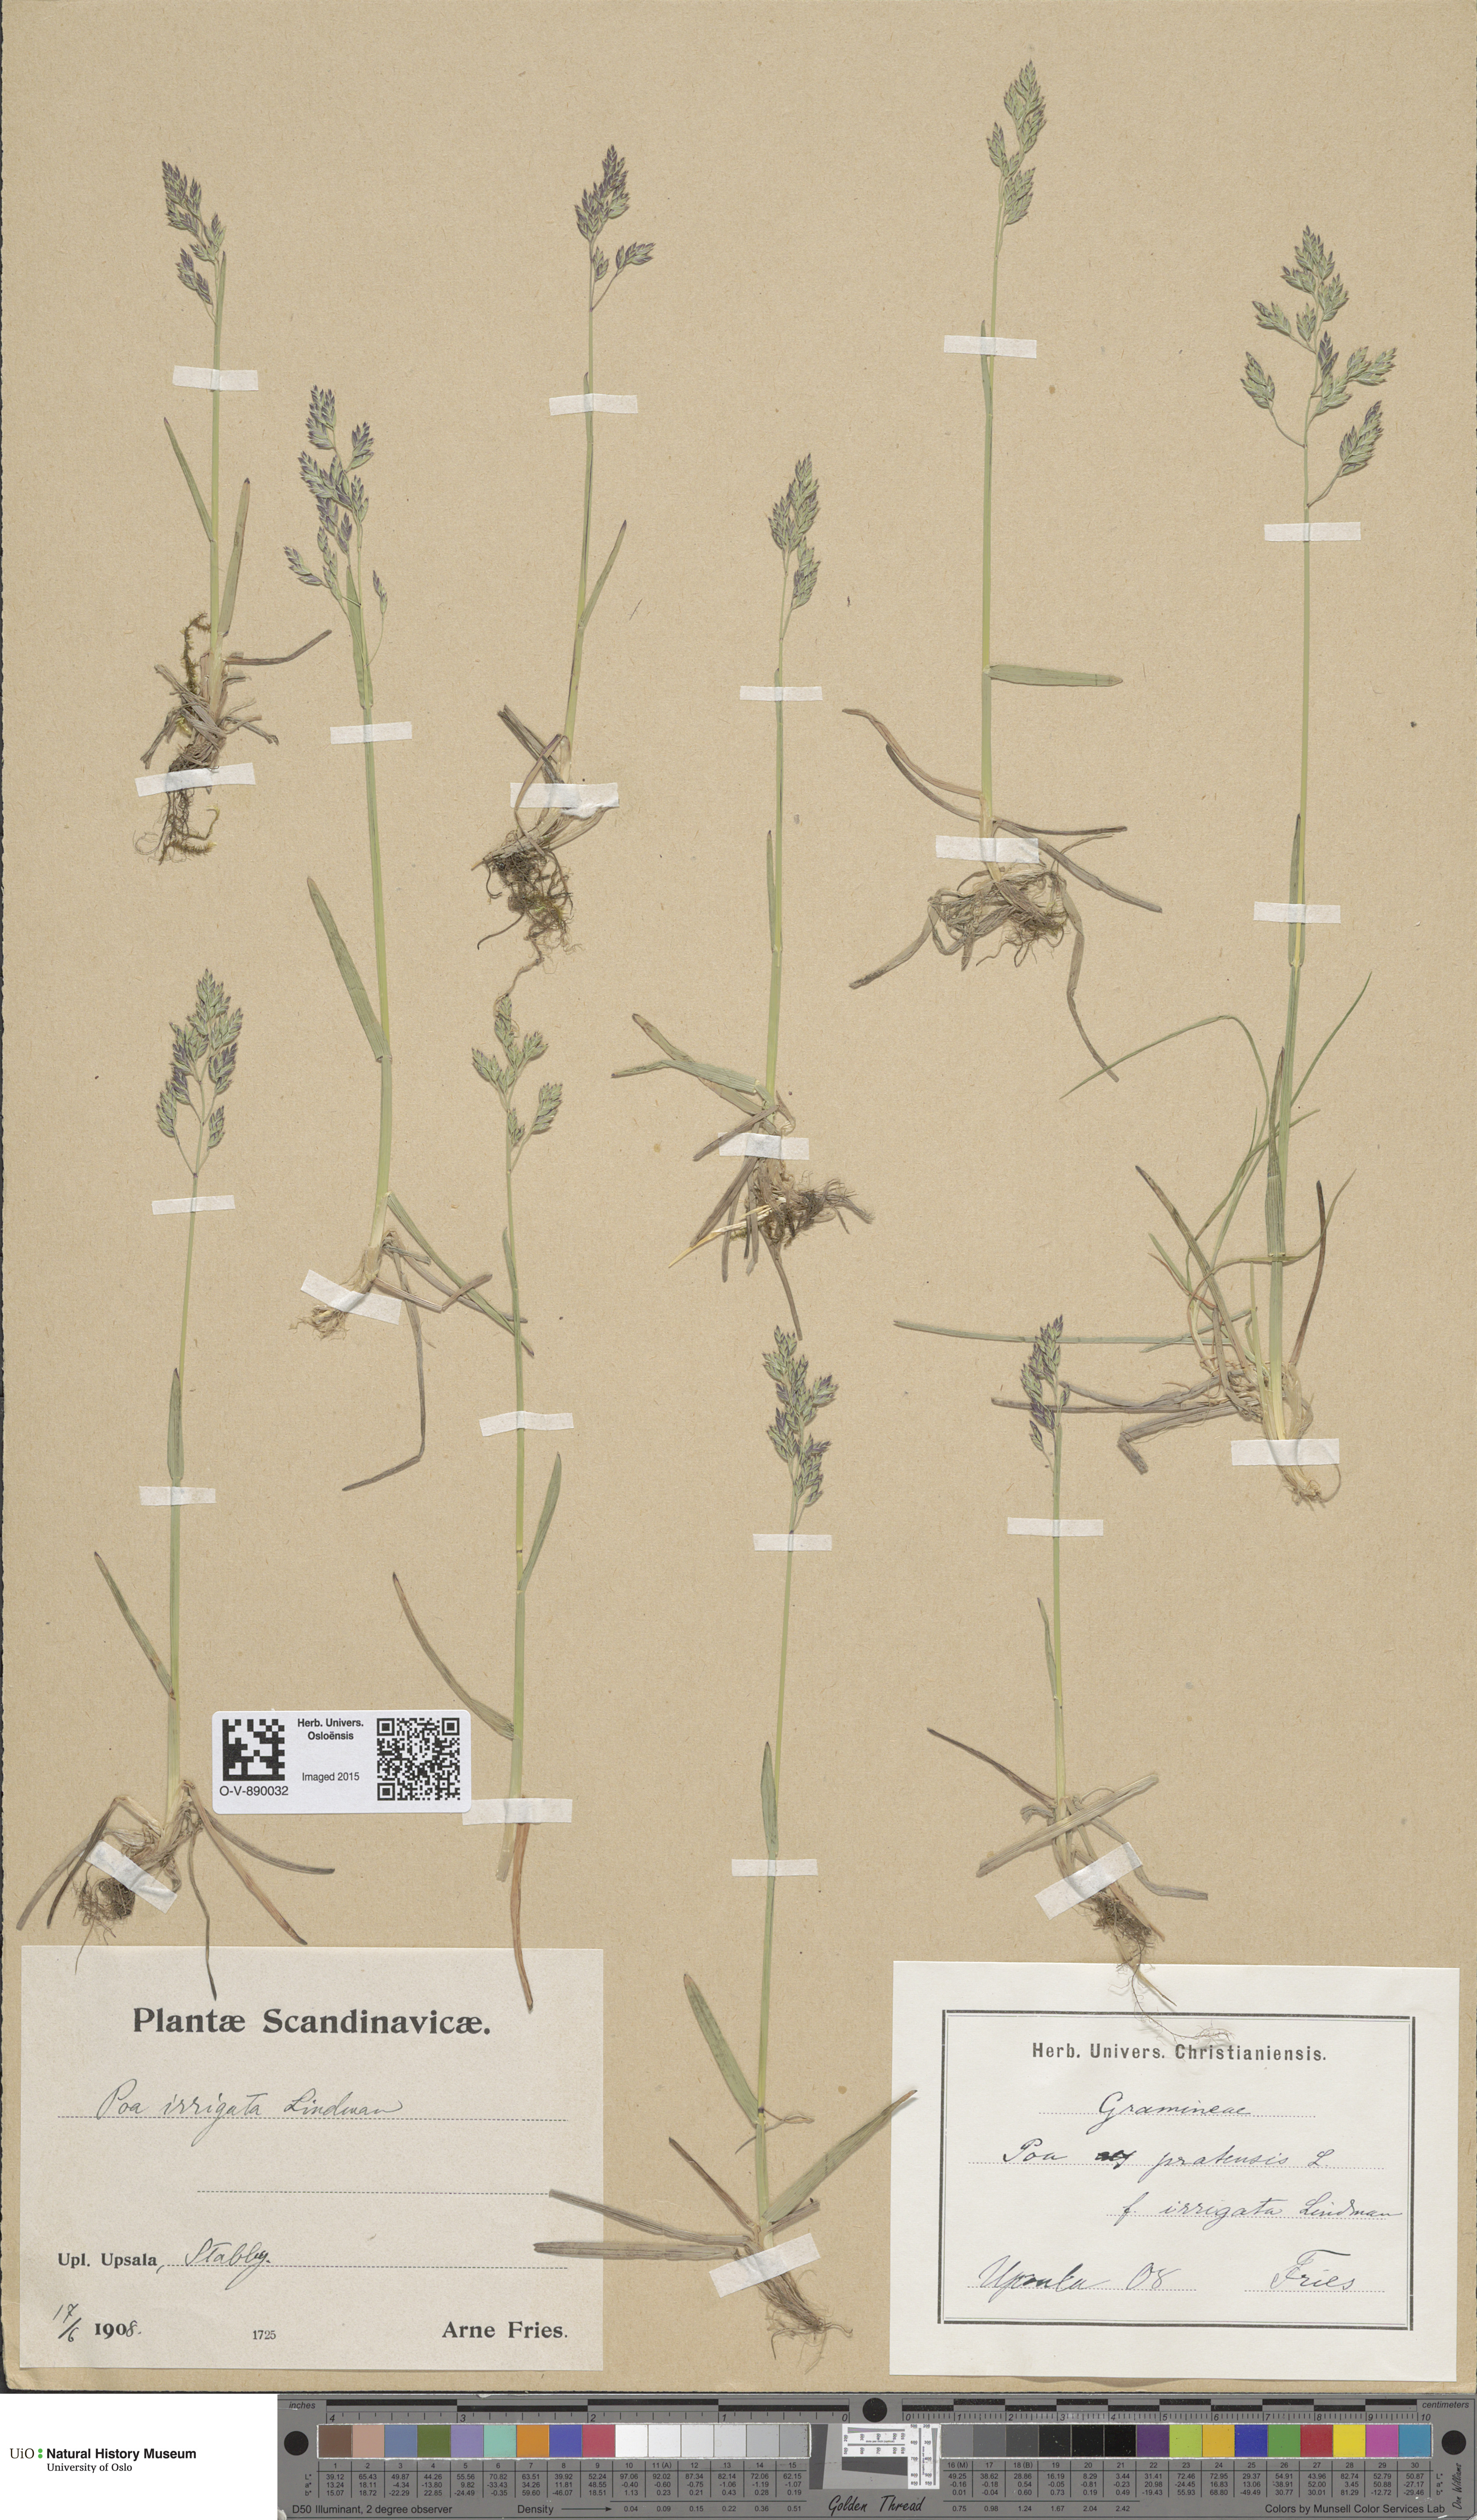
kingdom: Plantae
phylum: Tracheophyta
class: Liliopsida
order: Poales
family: Poaceae
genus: Poa
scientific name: Poa humilis
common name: Spreading meadow-grass
